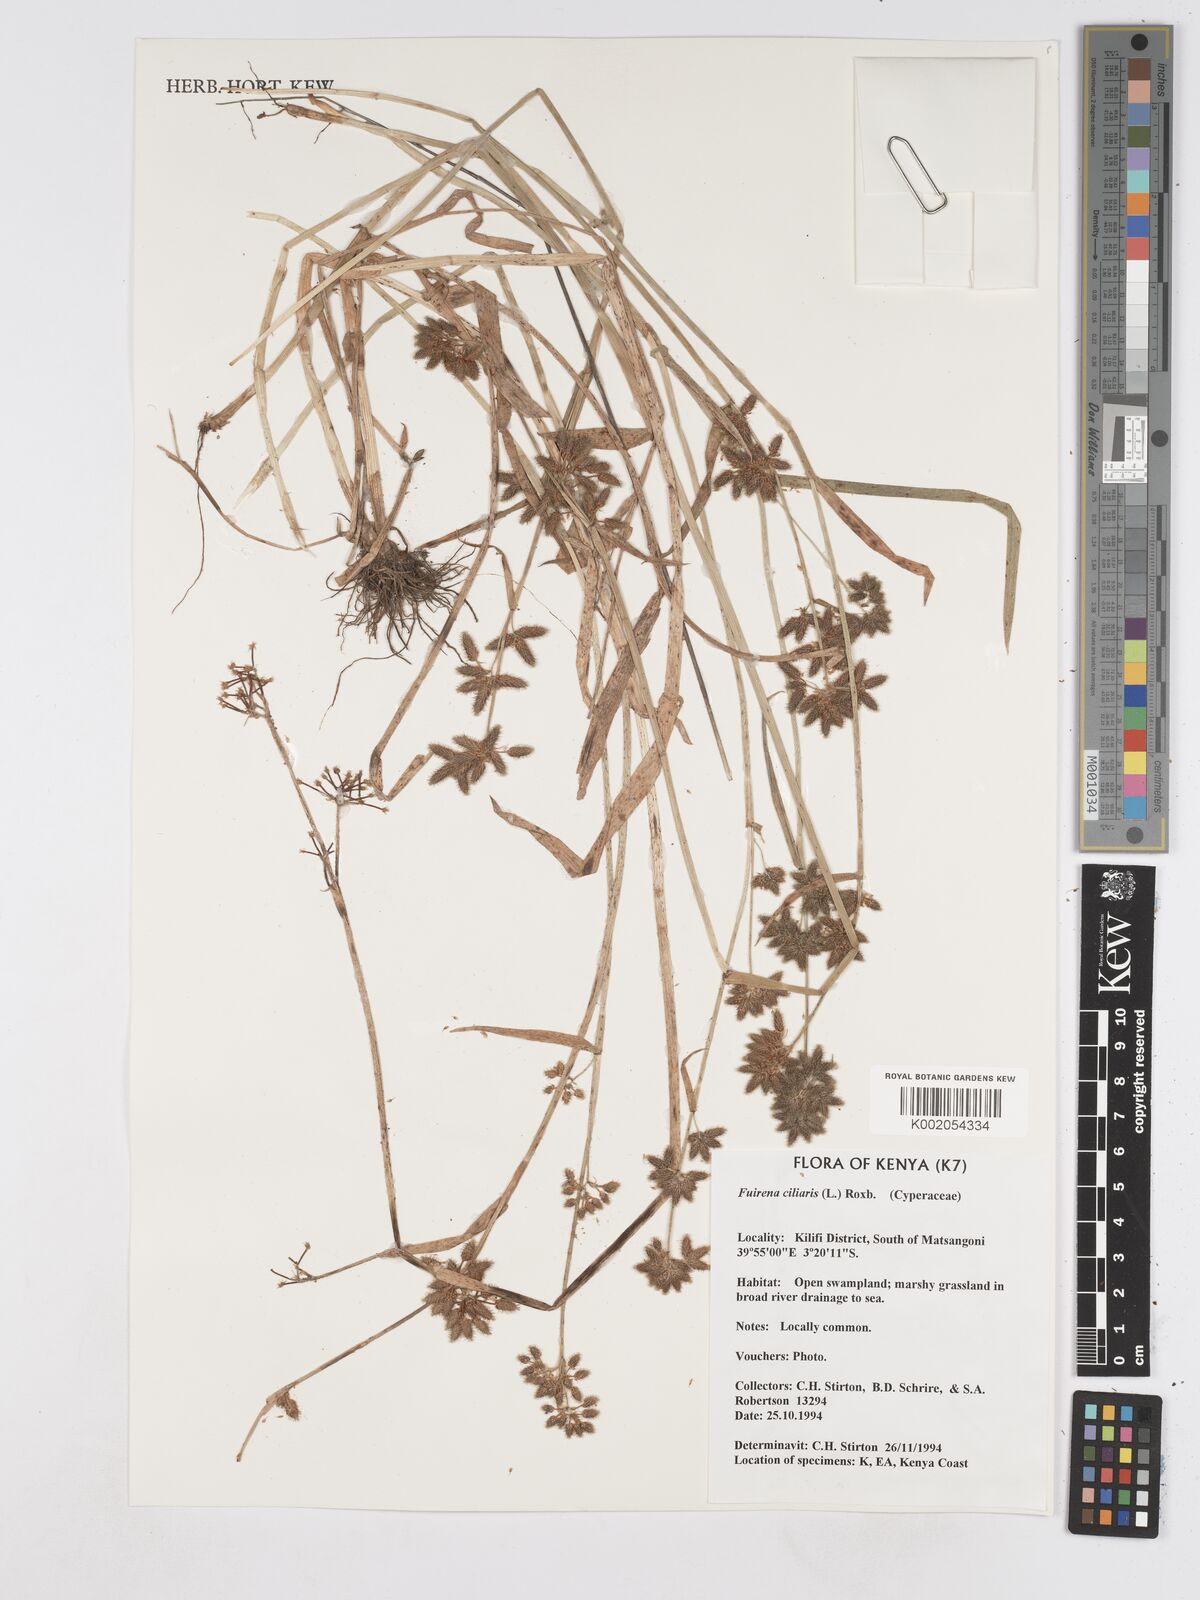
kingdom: Plantae
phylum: Tracheophyta
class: Liliopsida
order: Poales
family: Cyperaceae
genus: Fuirena
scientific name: Fuirena ciliaris
